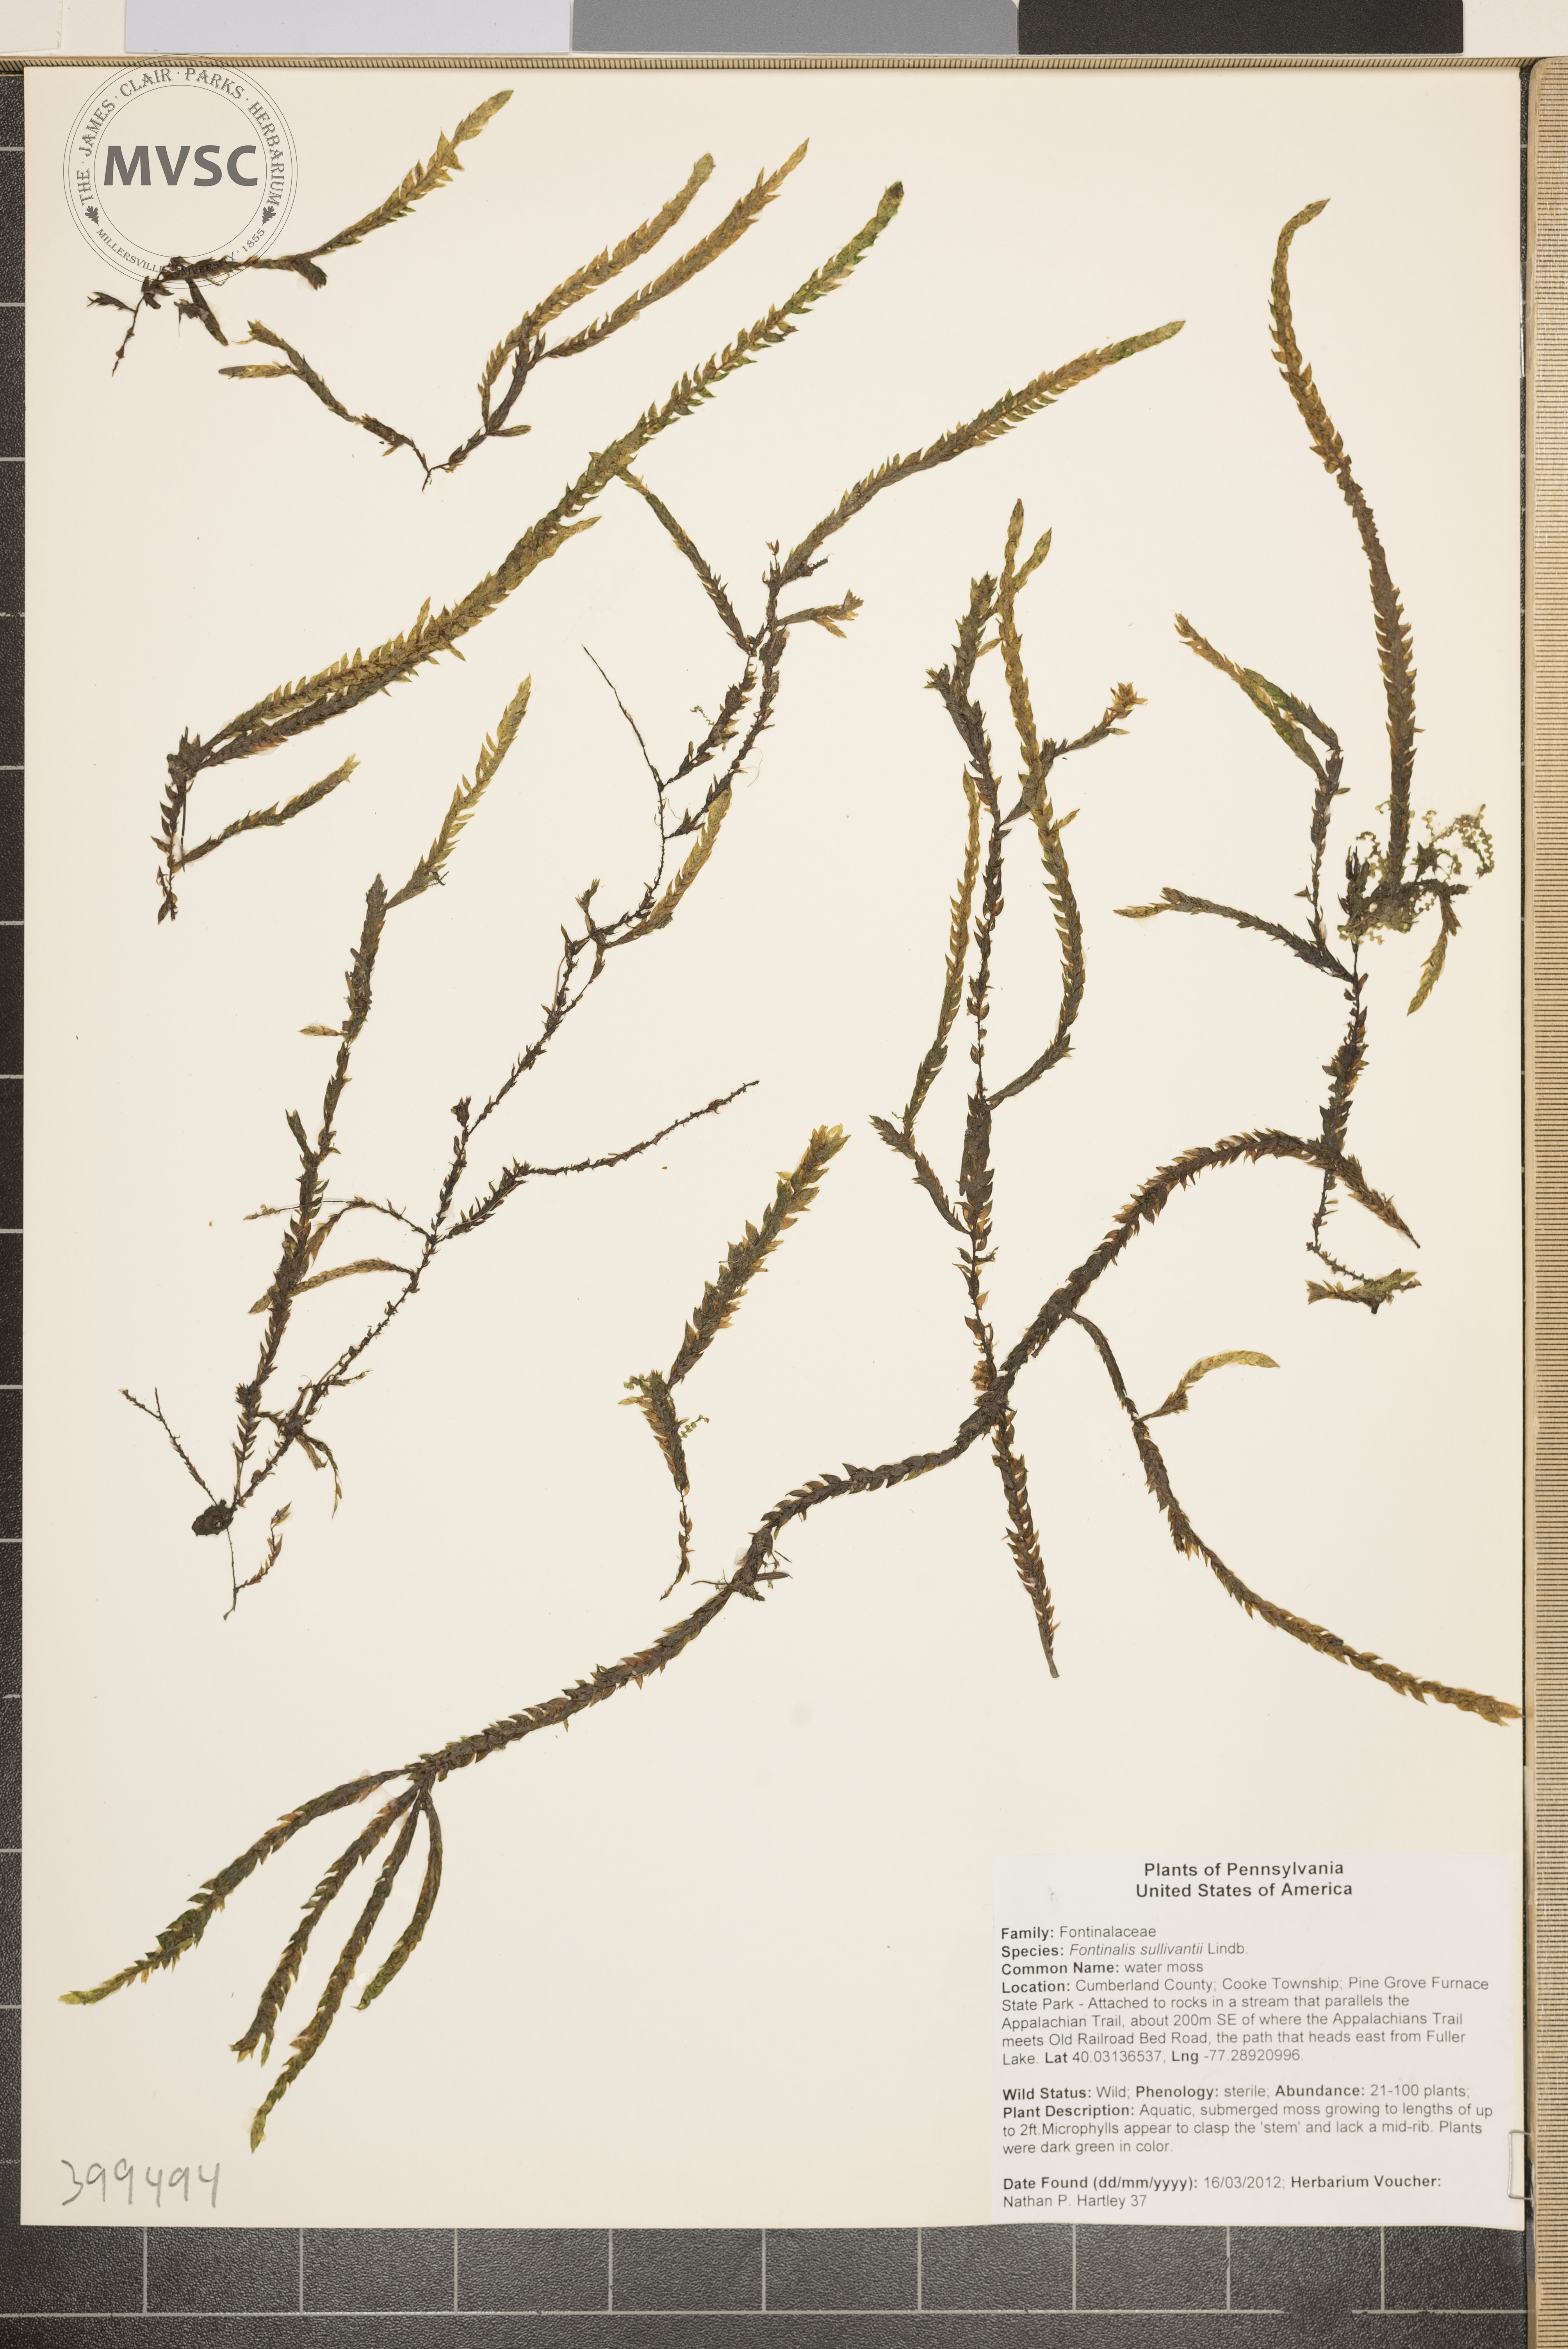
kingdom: Plantae
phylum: Bryophyta
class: Bryopsida
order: Hypnales
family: Fontinalaceae
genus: Fontinalis
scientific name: Fontinalis sullivantii
